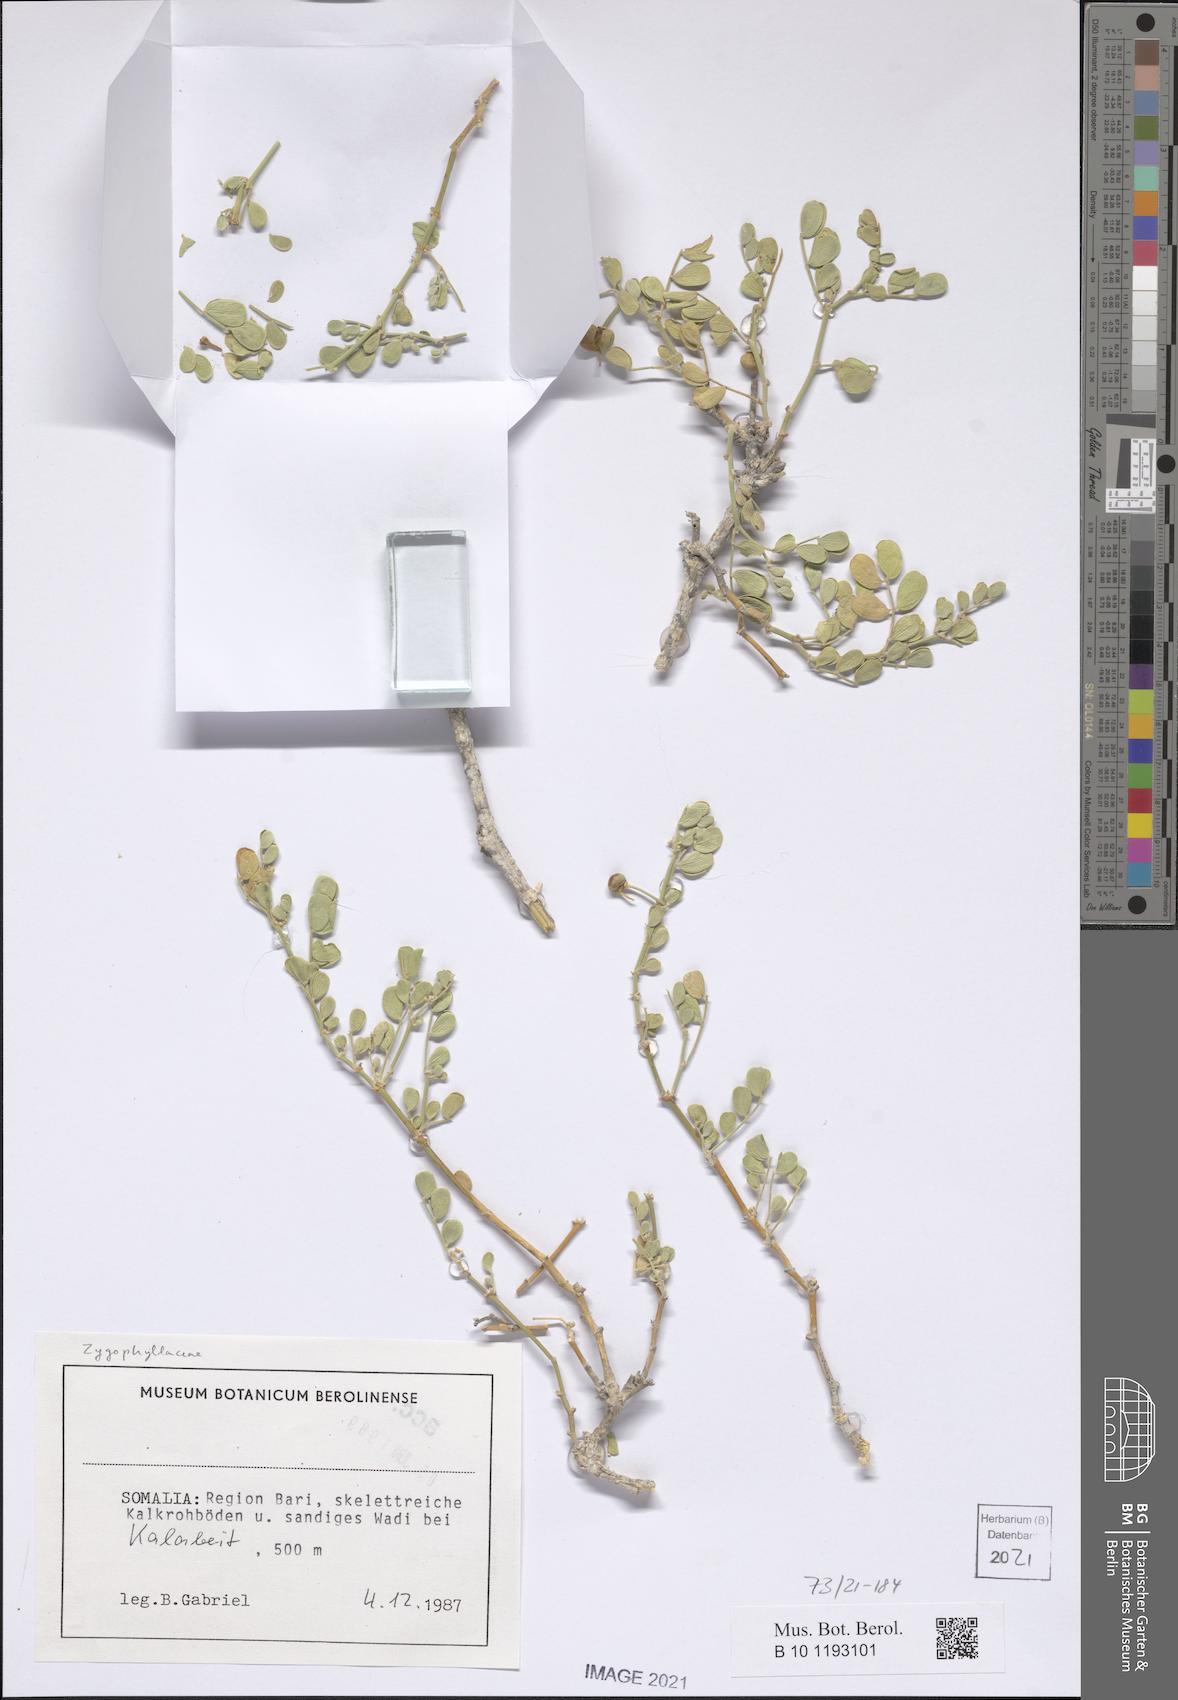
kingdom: Plantae
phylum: Tracheophyta
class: Magnoliopsida
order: Zygophyllales
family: Zygophyllaceae
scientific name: Zygophyllaceae
